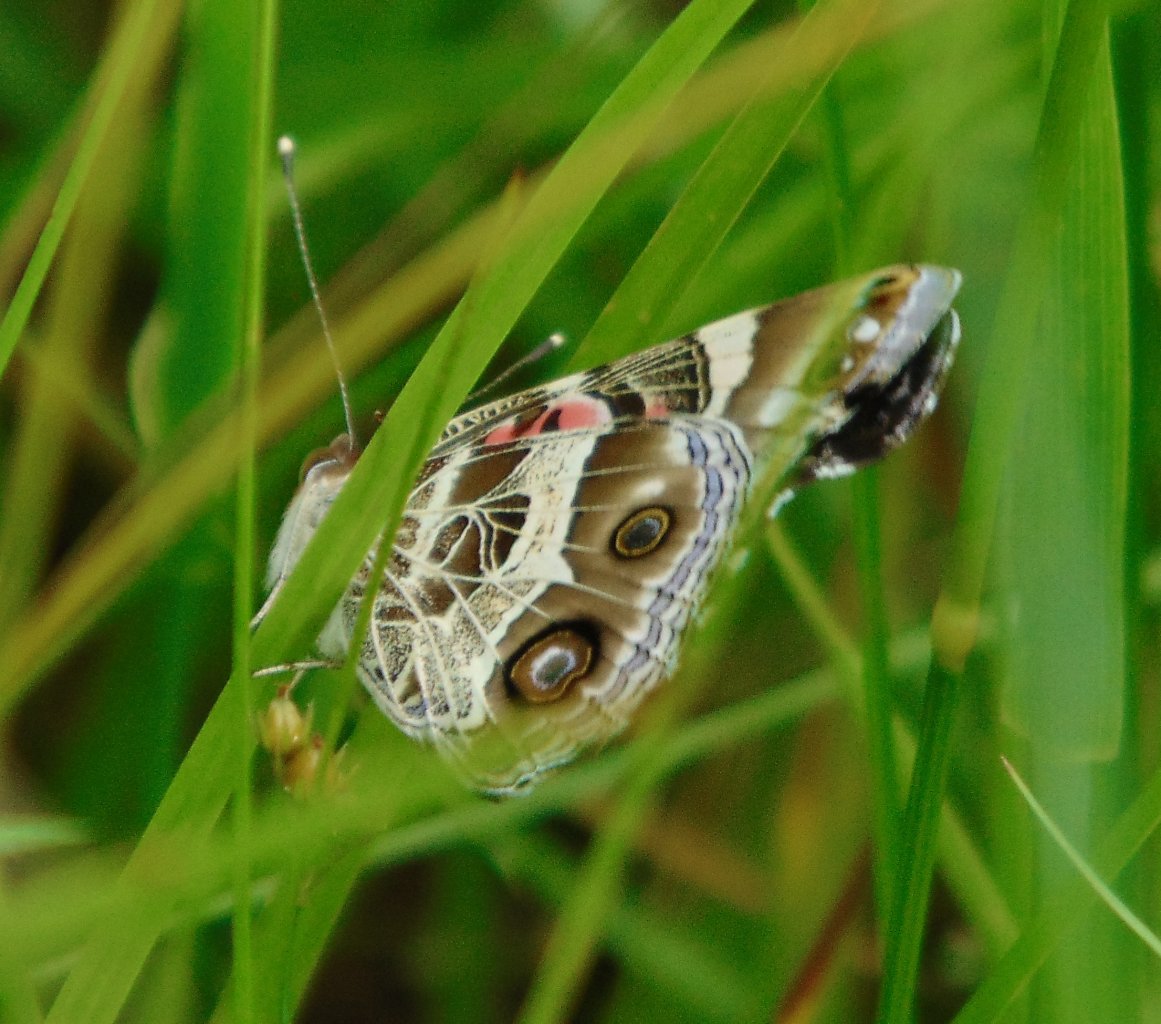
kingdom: Animalia
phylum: Arthropoda
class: Insecta
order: Lepidoptera
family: Nymphalidae
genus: Vanessa
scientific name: Vanessa virginiensis
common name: American Lady
